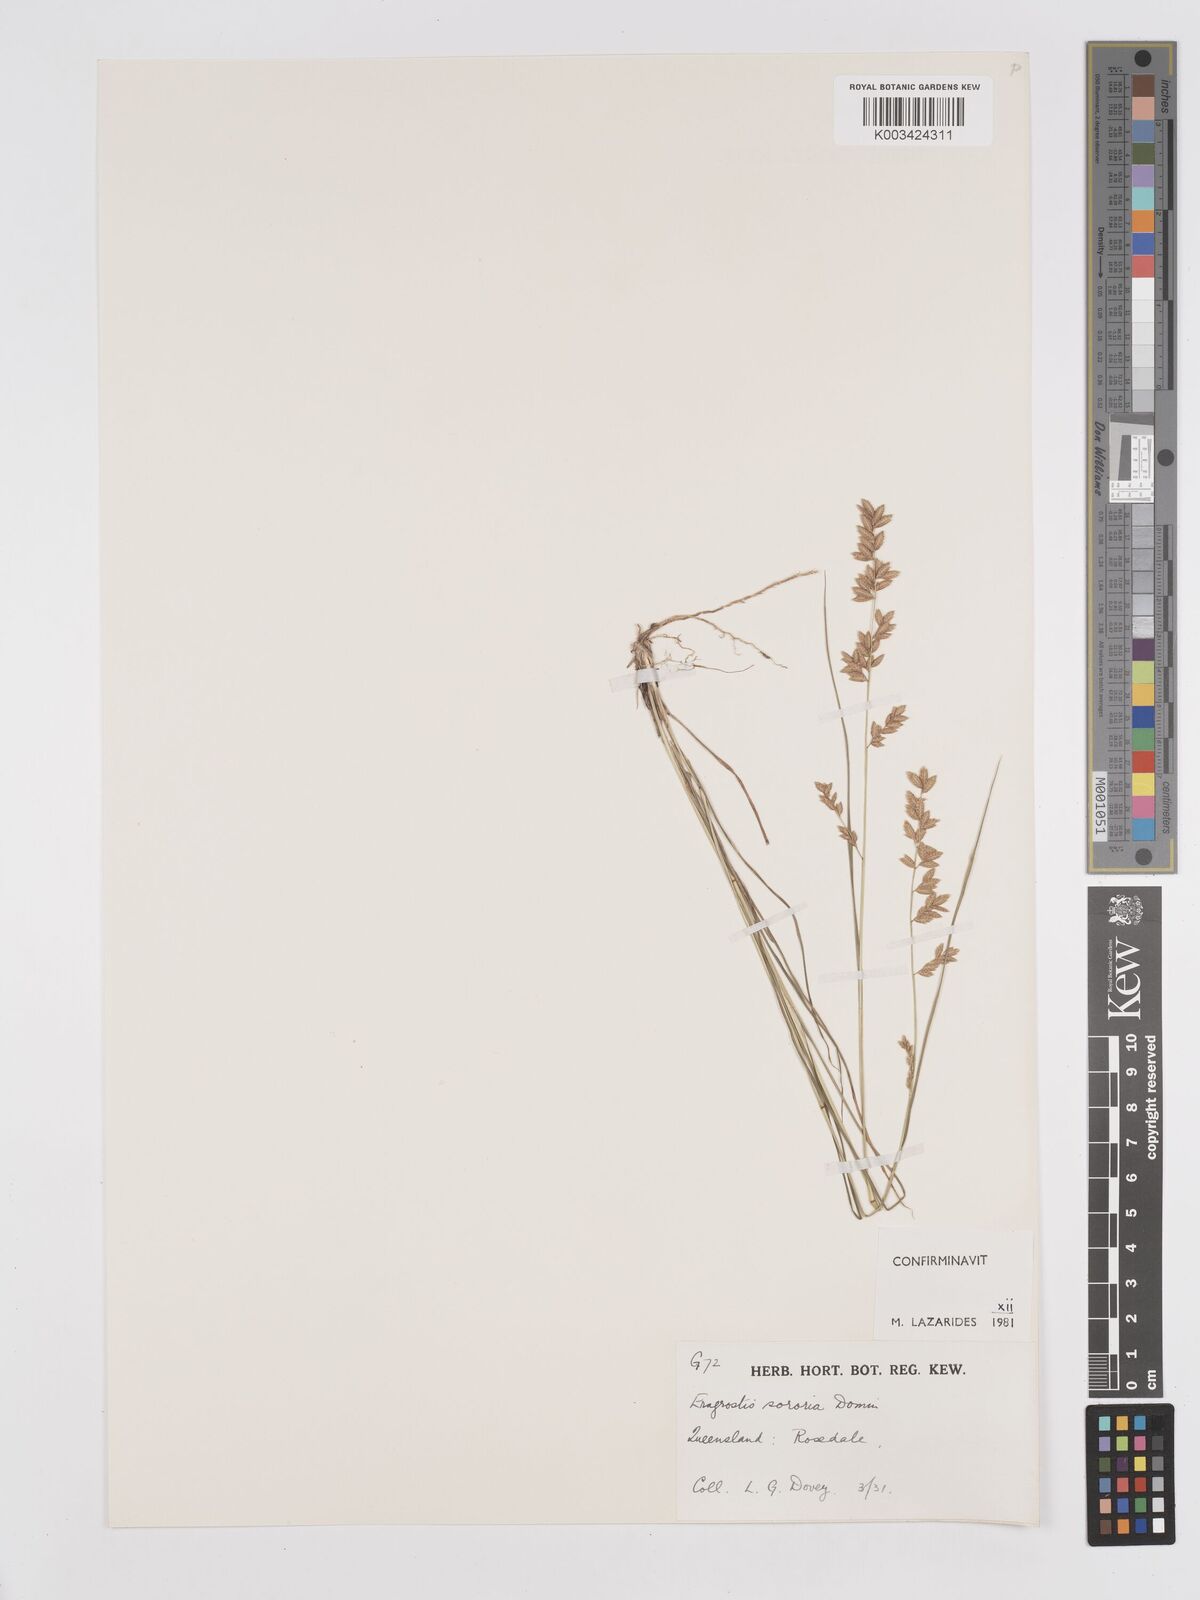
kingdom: Plantae
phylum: Tracheophyta
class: Liliopsida
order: Poales
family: Poaceae
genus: Eragrostis
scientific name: Eragrostis sororia
